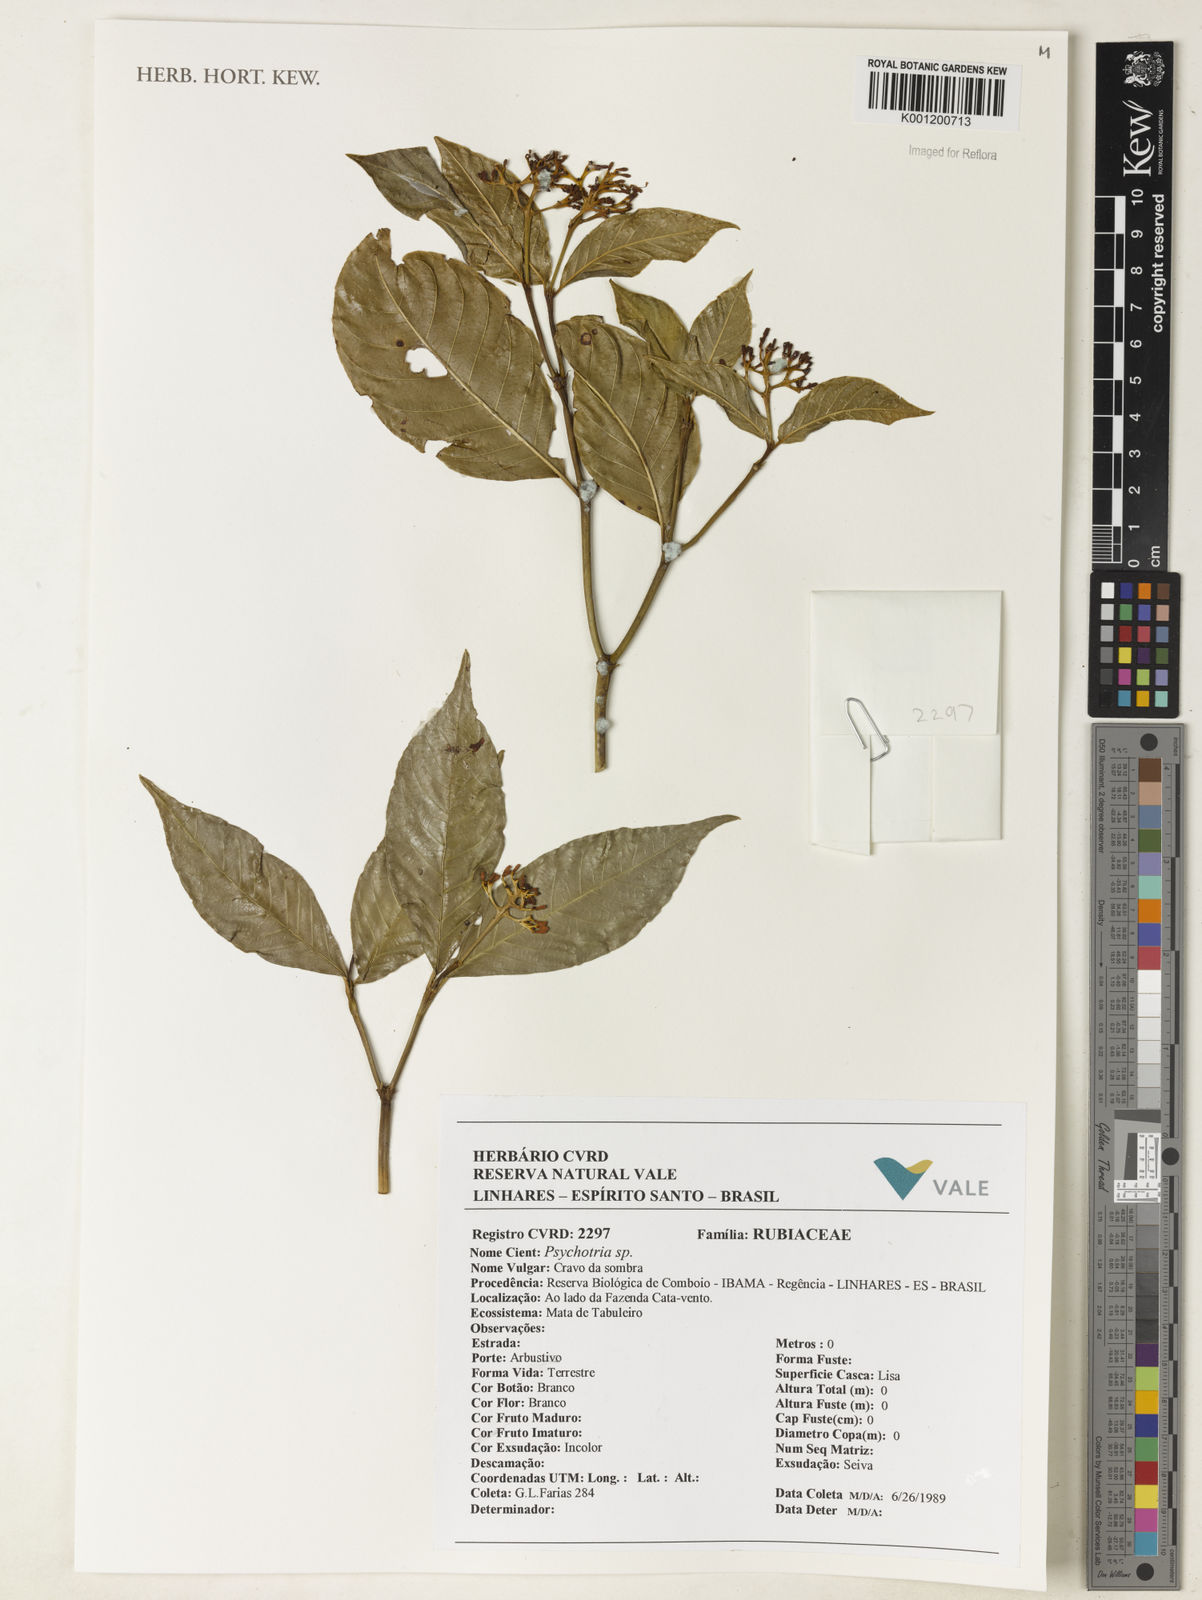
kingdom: Plantae
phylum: Tracheophyta
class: Magnoliopsida
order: Gentianales
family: Rubiaceae
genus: Psychotria
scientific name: Psychotria
